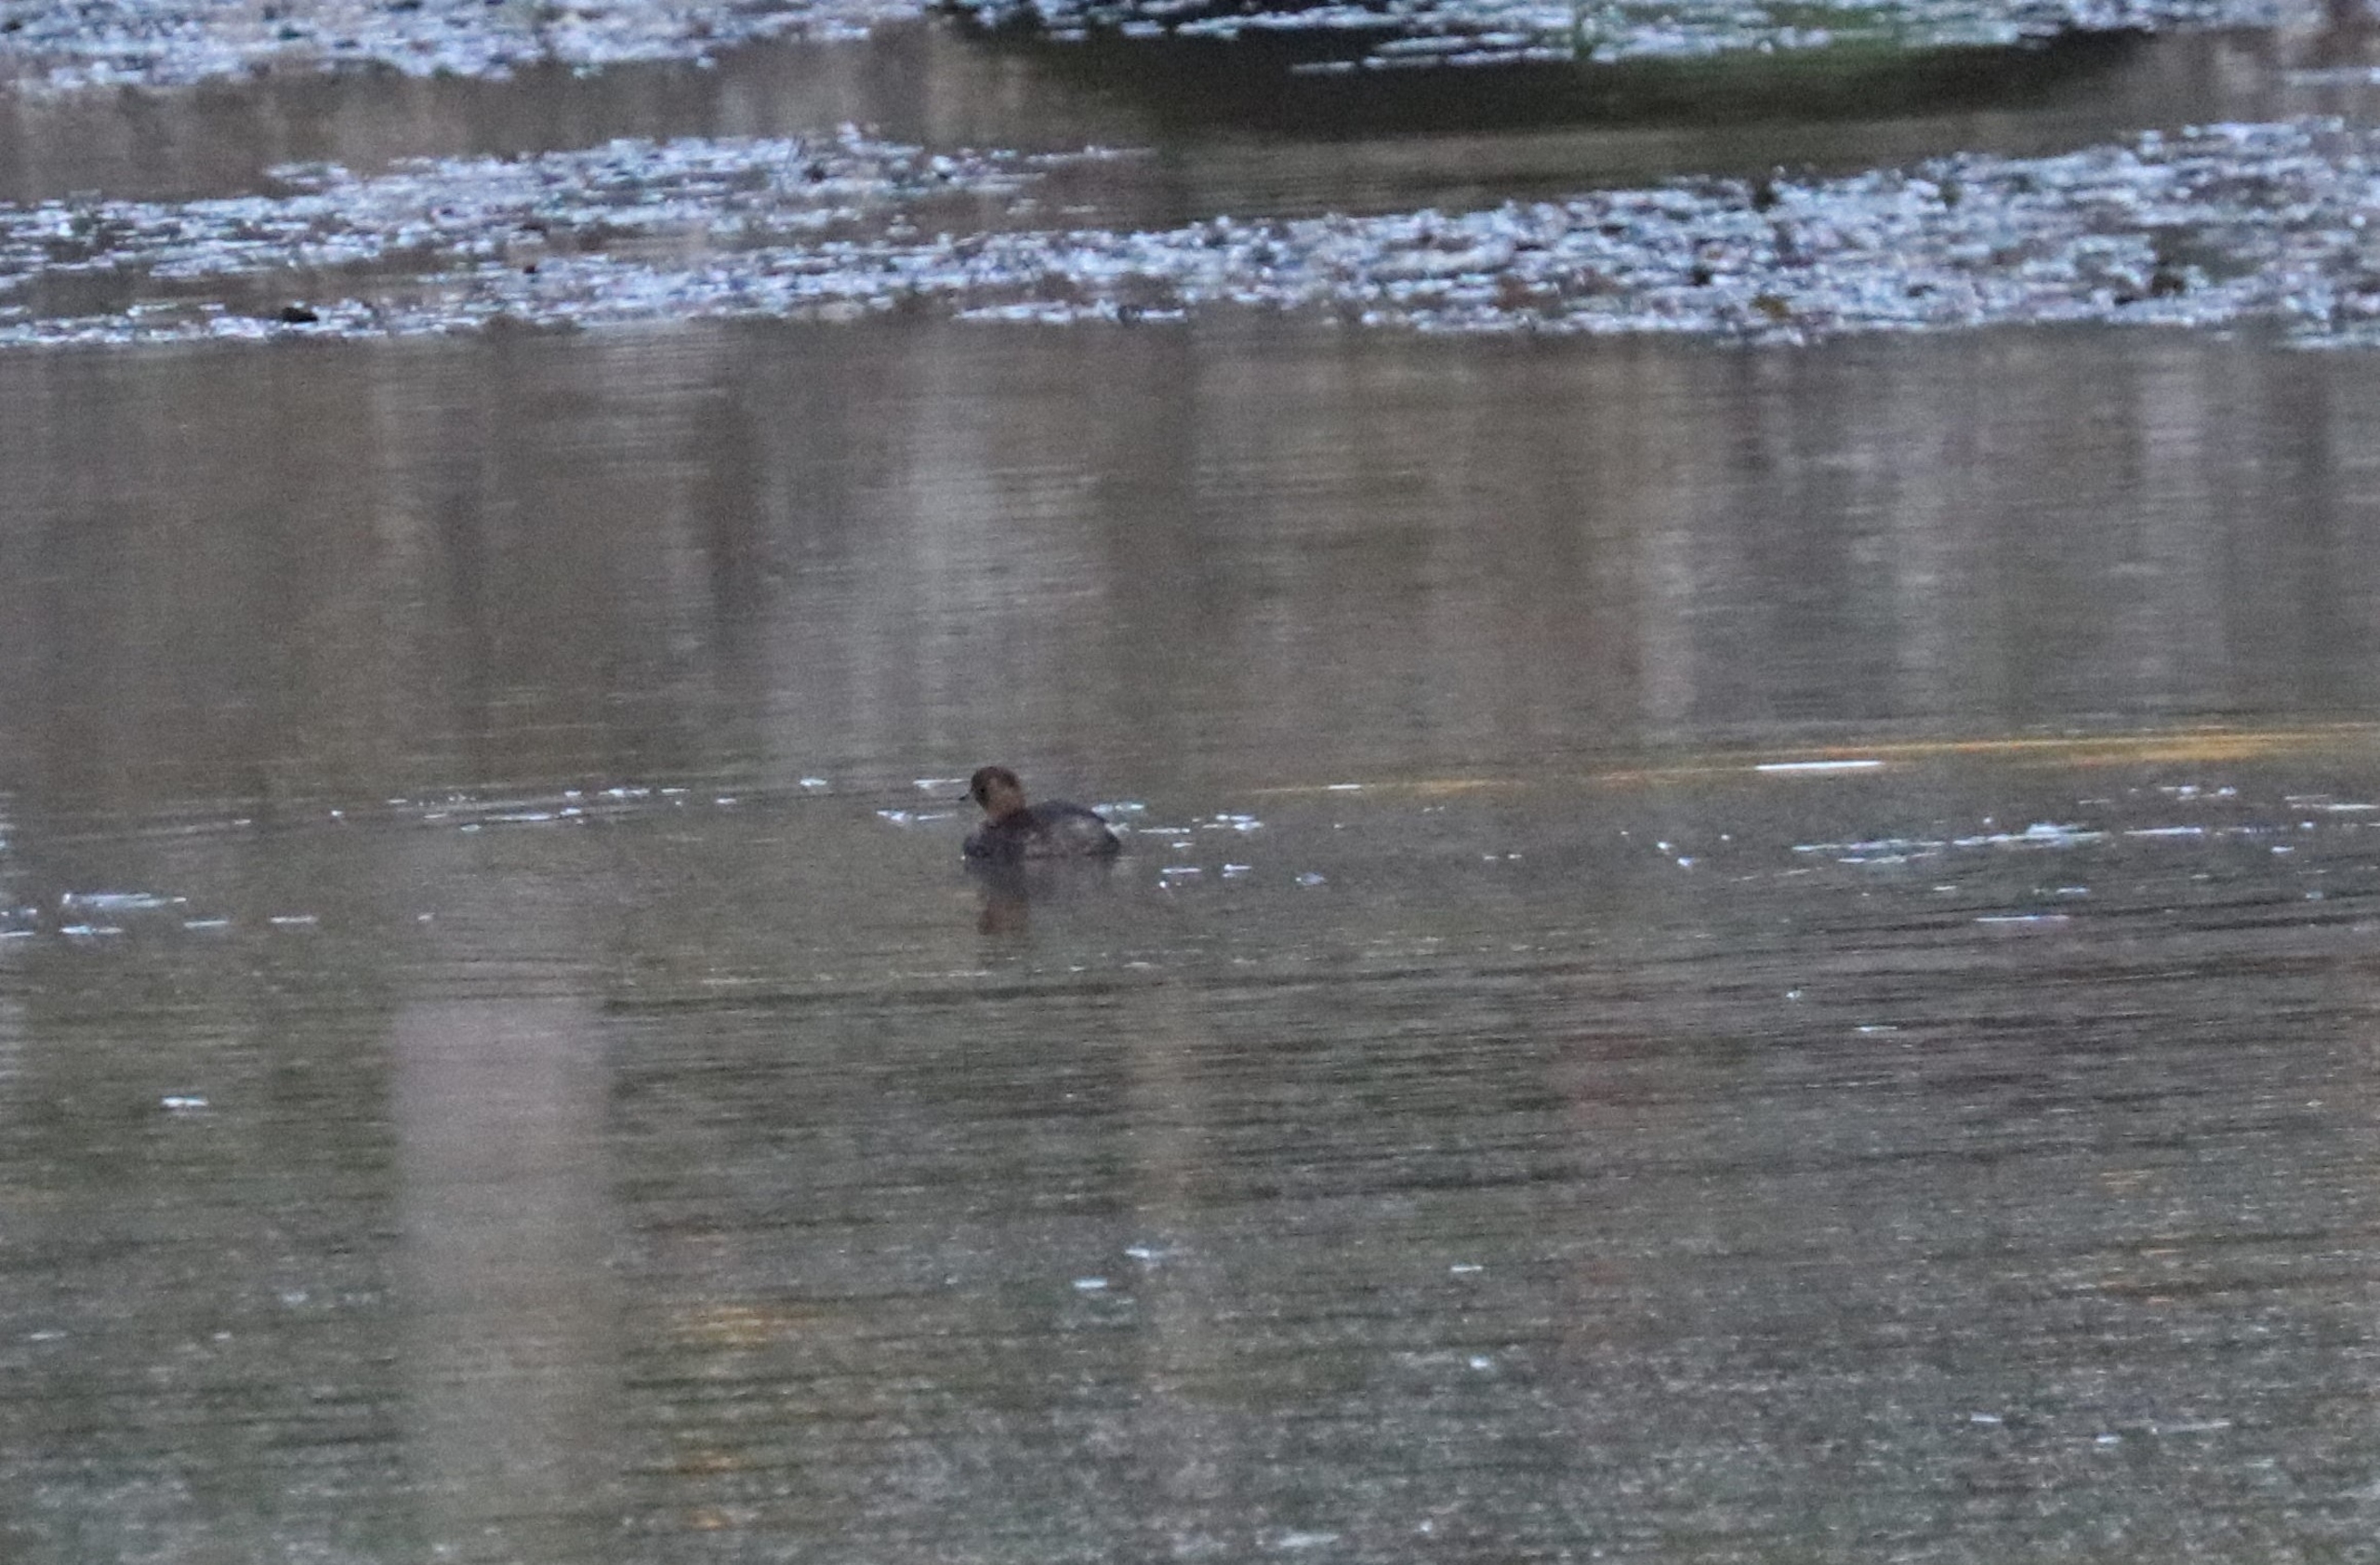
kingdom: Animalia
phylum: Chordata
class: Aves
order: Podicipediformes
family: Podicipedidae
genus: Tachybaptus
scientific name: Tachybaptus ruficollis
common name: Lille lappedykker
